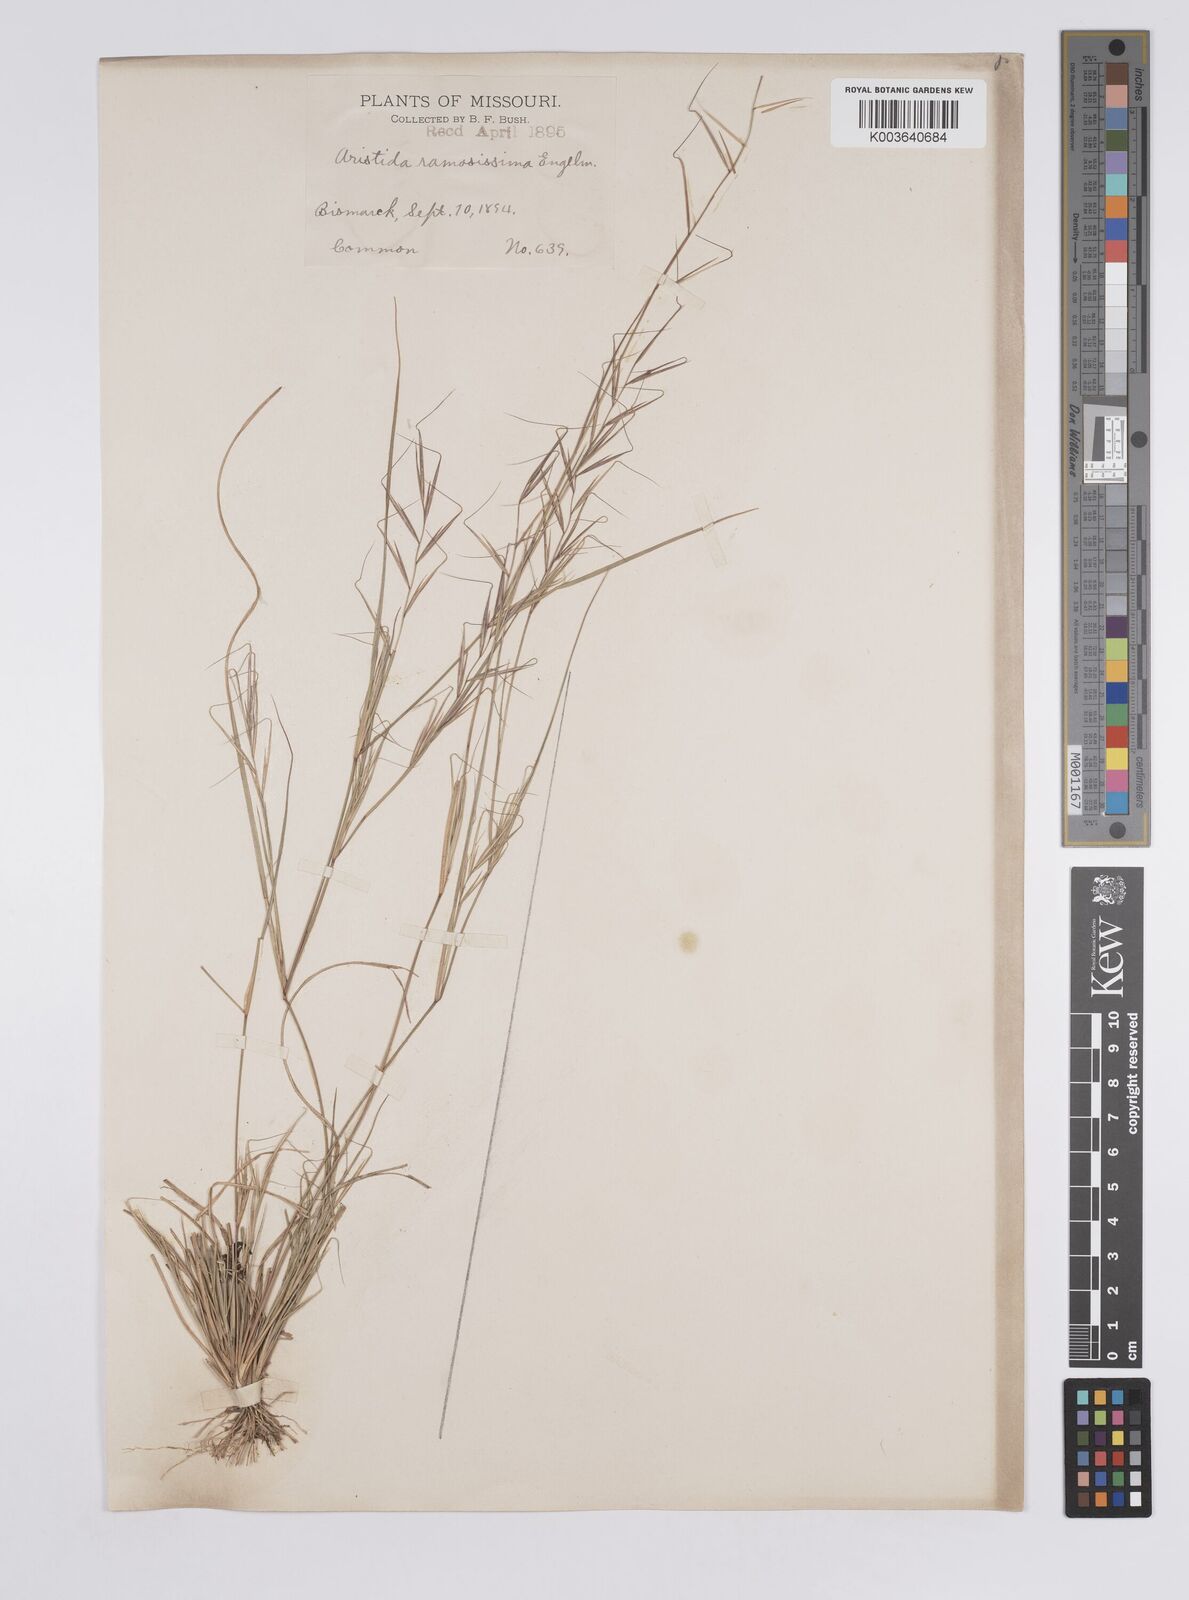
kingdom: Plantae
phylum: Tracheophyta
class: Liliopsida
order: Poales
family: Poaceae
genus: Aristida
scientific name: Aristida ramosissima
